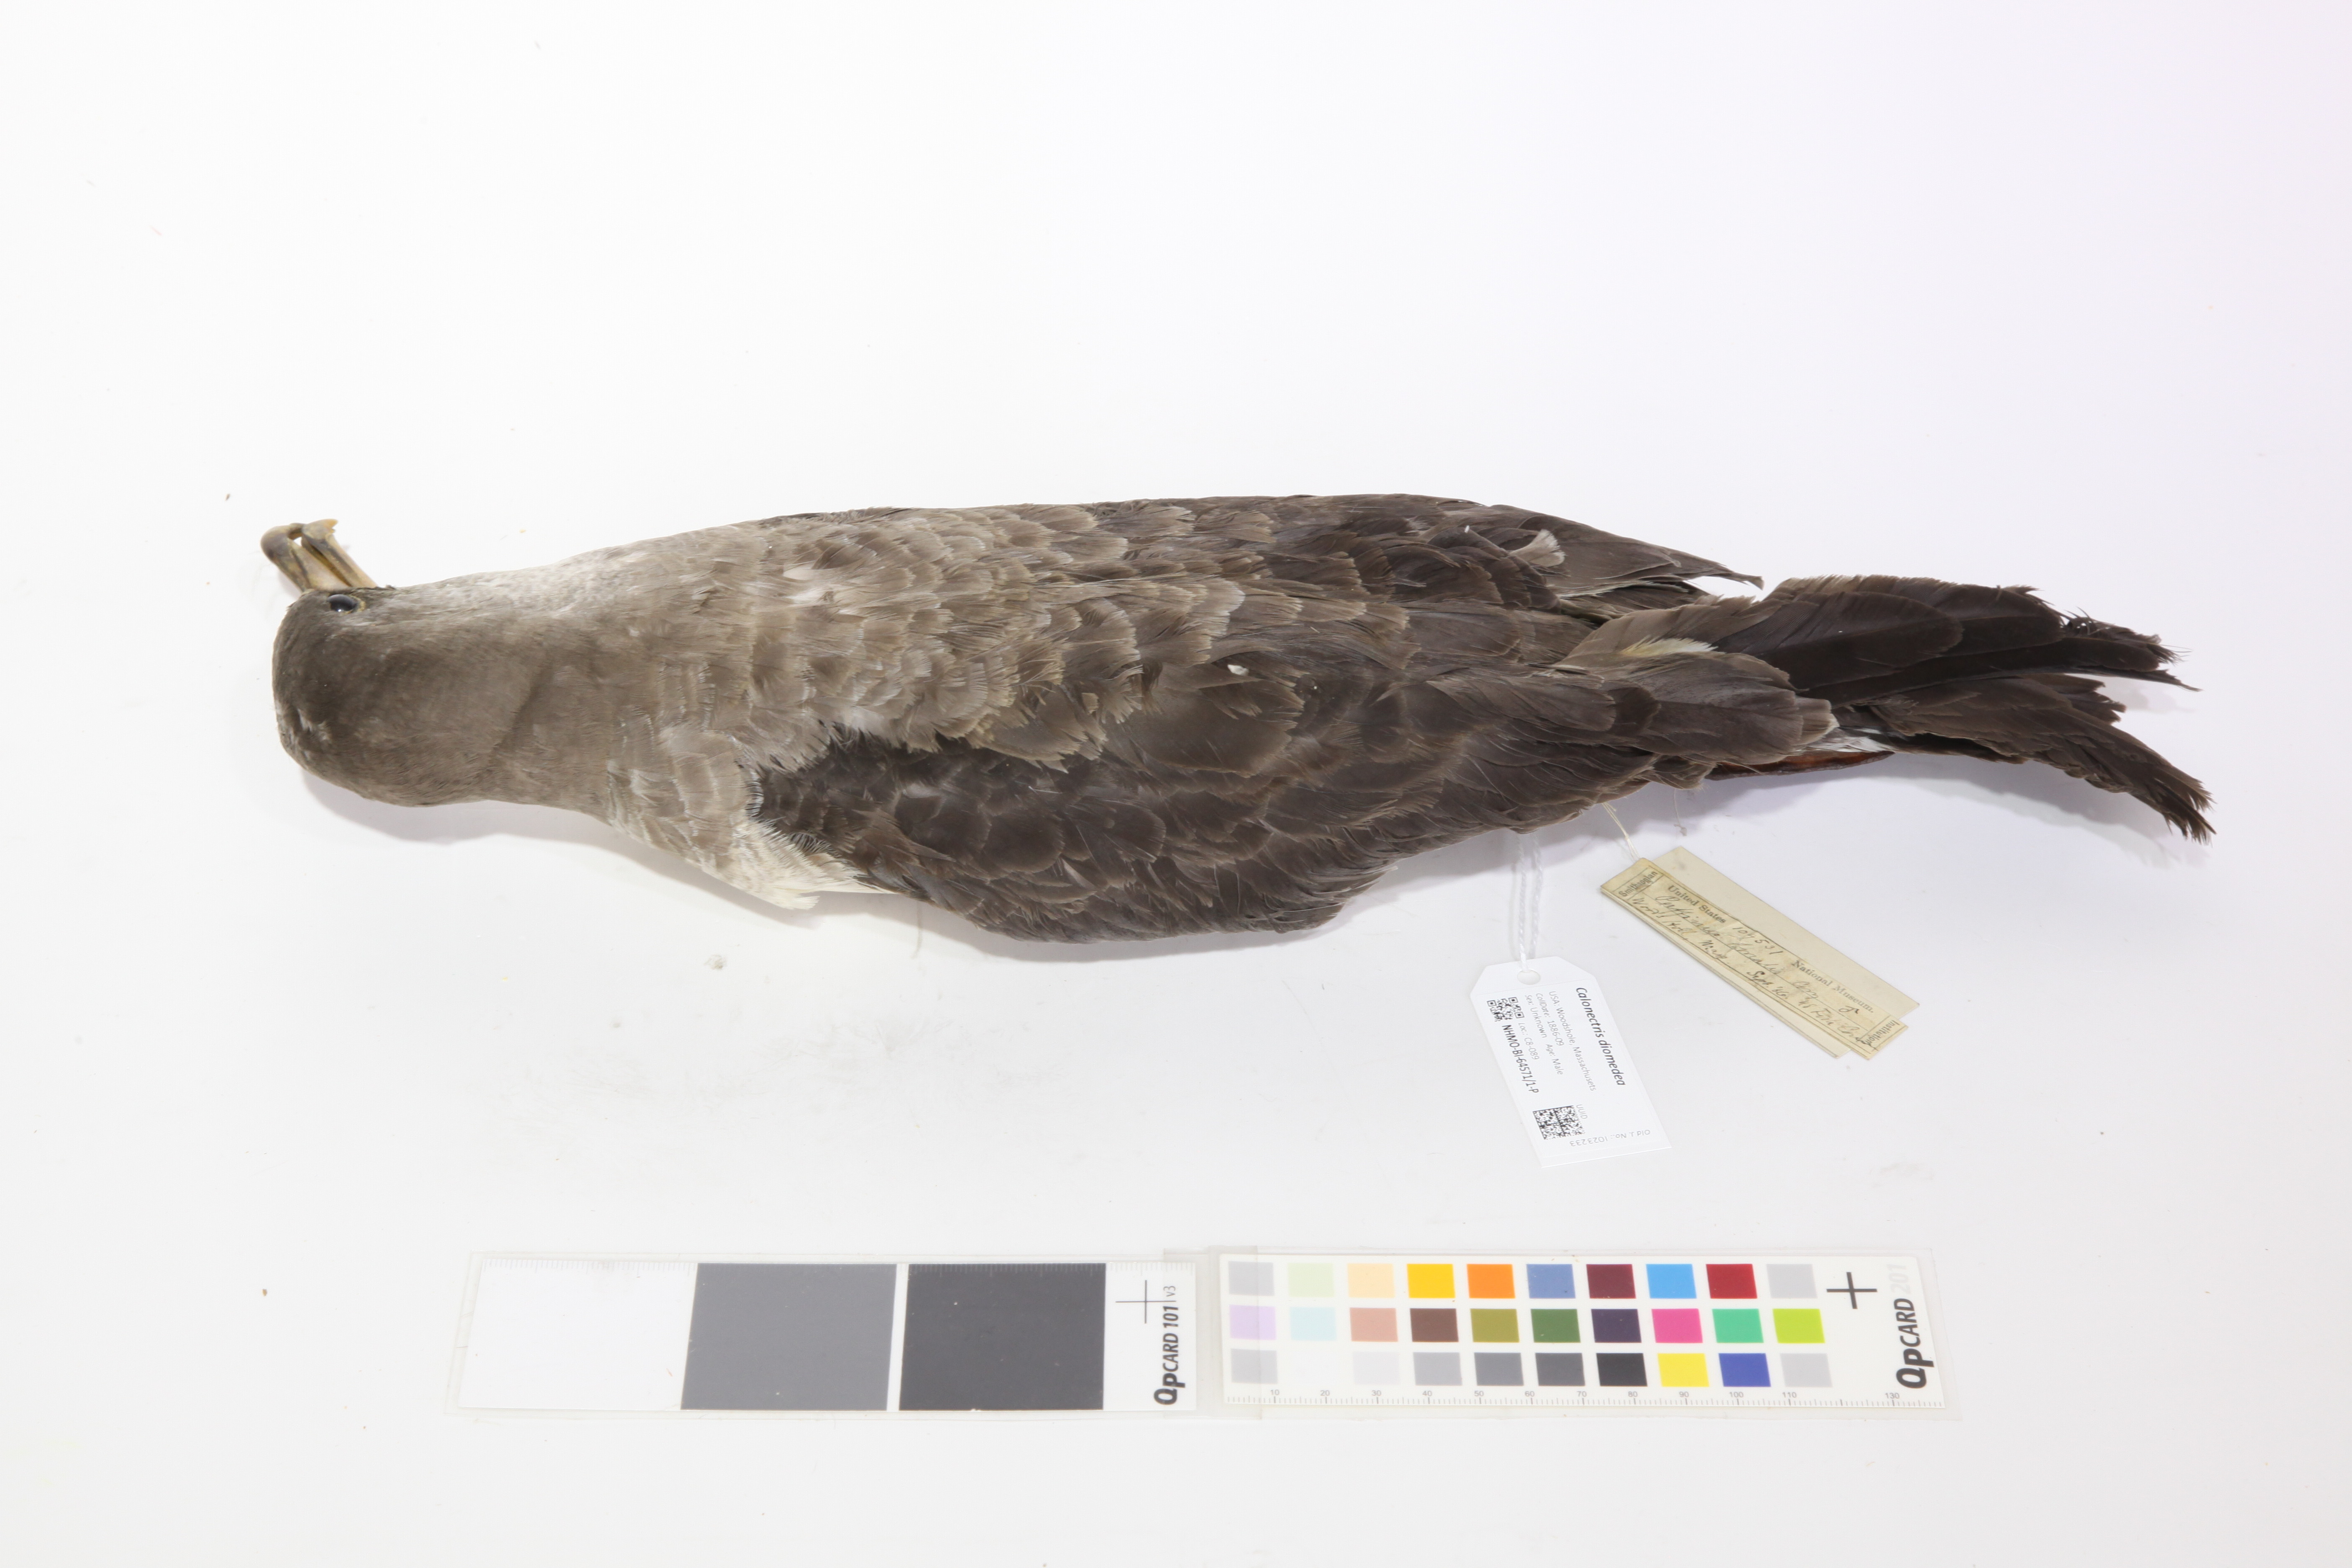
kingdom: Animalia
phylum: Chordata
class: Aves
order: Procellariiformes
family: Procellariidae
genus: Calonectris
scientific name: Calonectris diomedea
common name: Cory's shearwater
